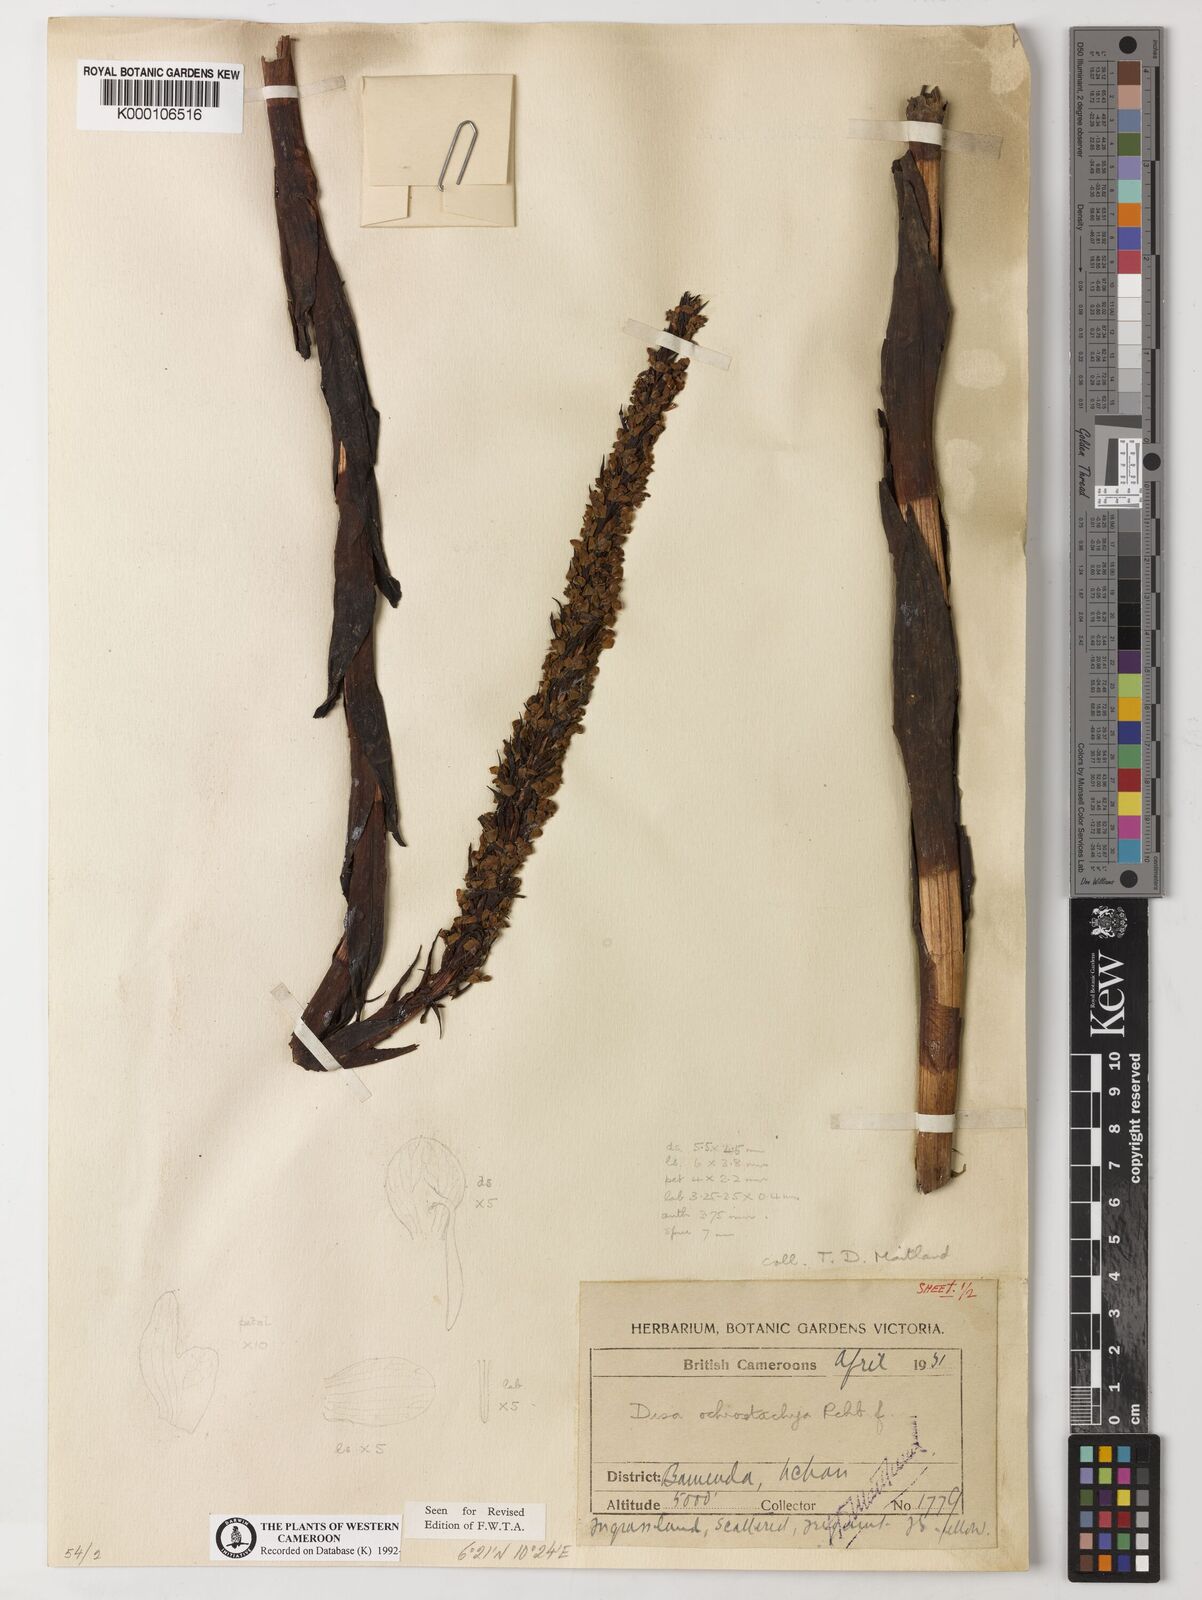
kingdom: Plantae
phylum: Tracheophyta
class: Liliopsida
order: Asparagales
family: Orchidaceae
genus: Disa
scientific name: Disa ochrostachya
